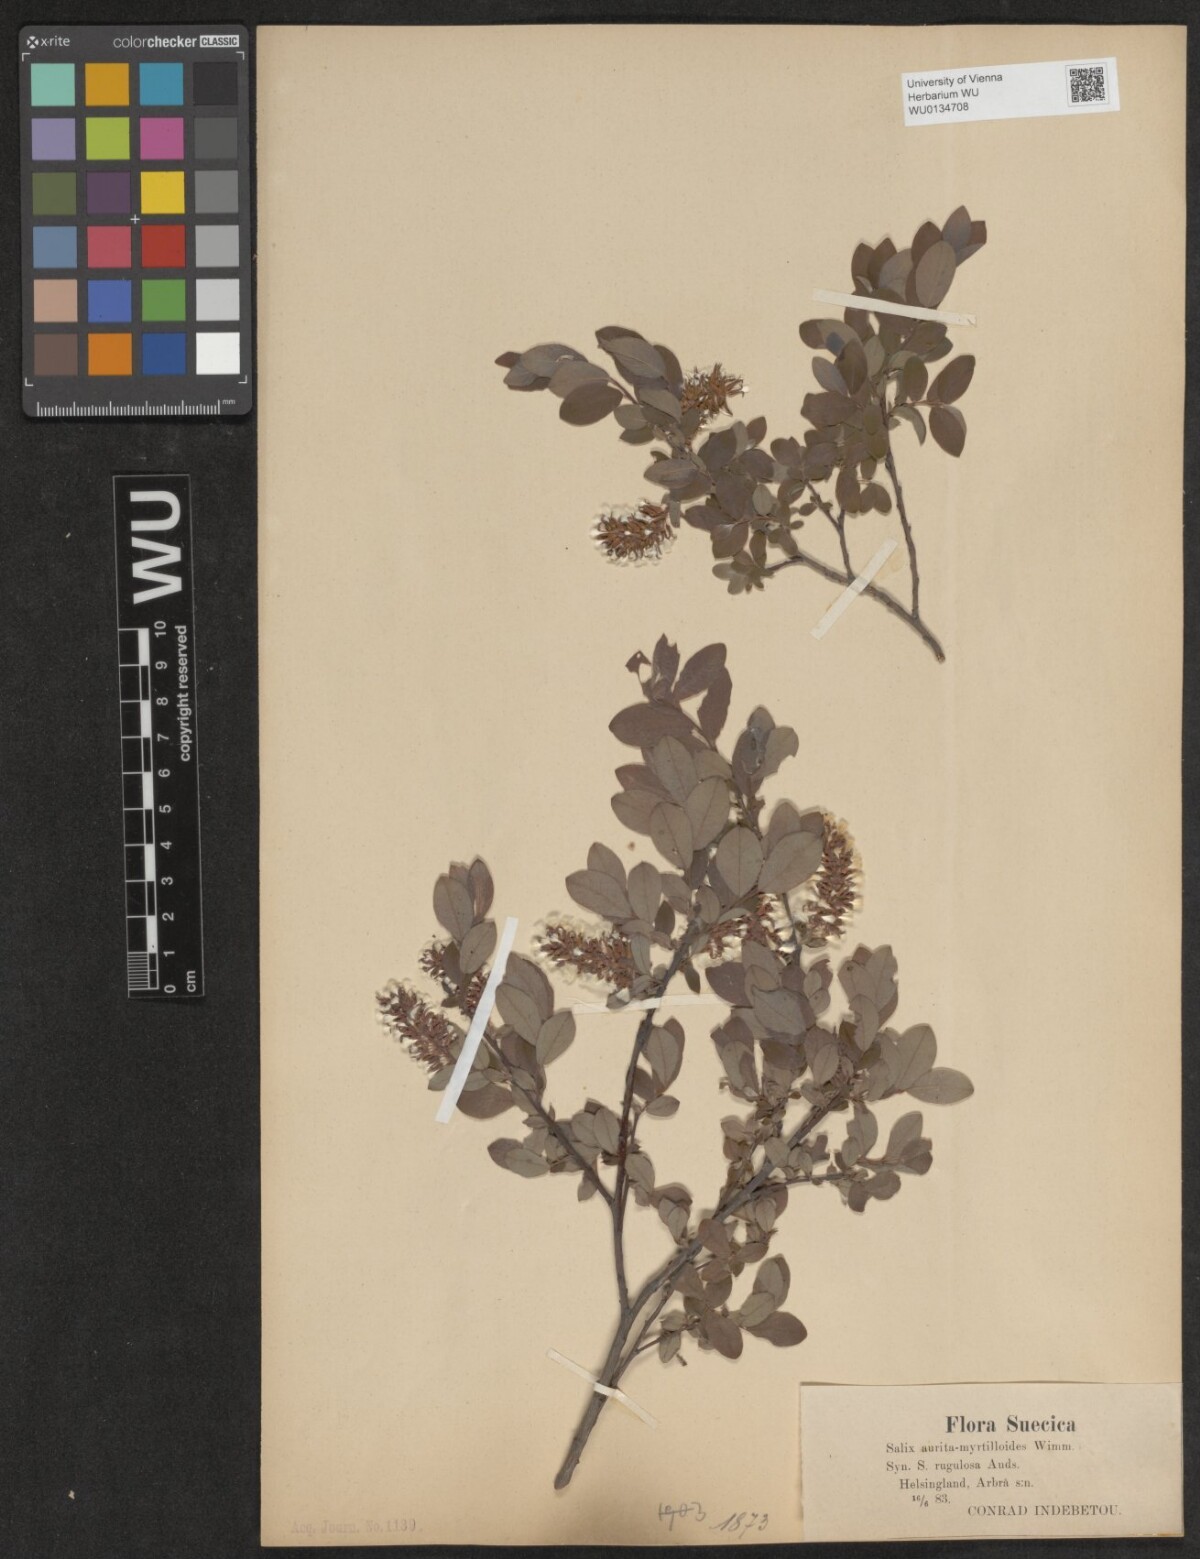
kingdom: Plantae
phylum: Tracheophyta
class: Magnoliopsida
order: Malpighiales
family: Salicaceae
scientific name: Salicaceae
